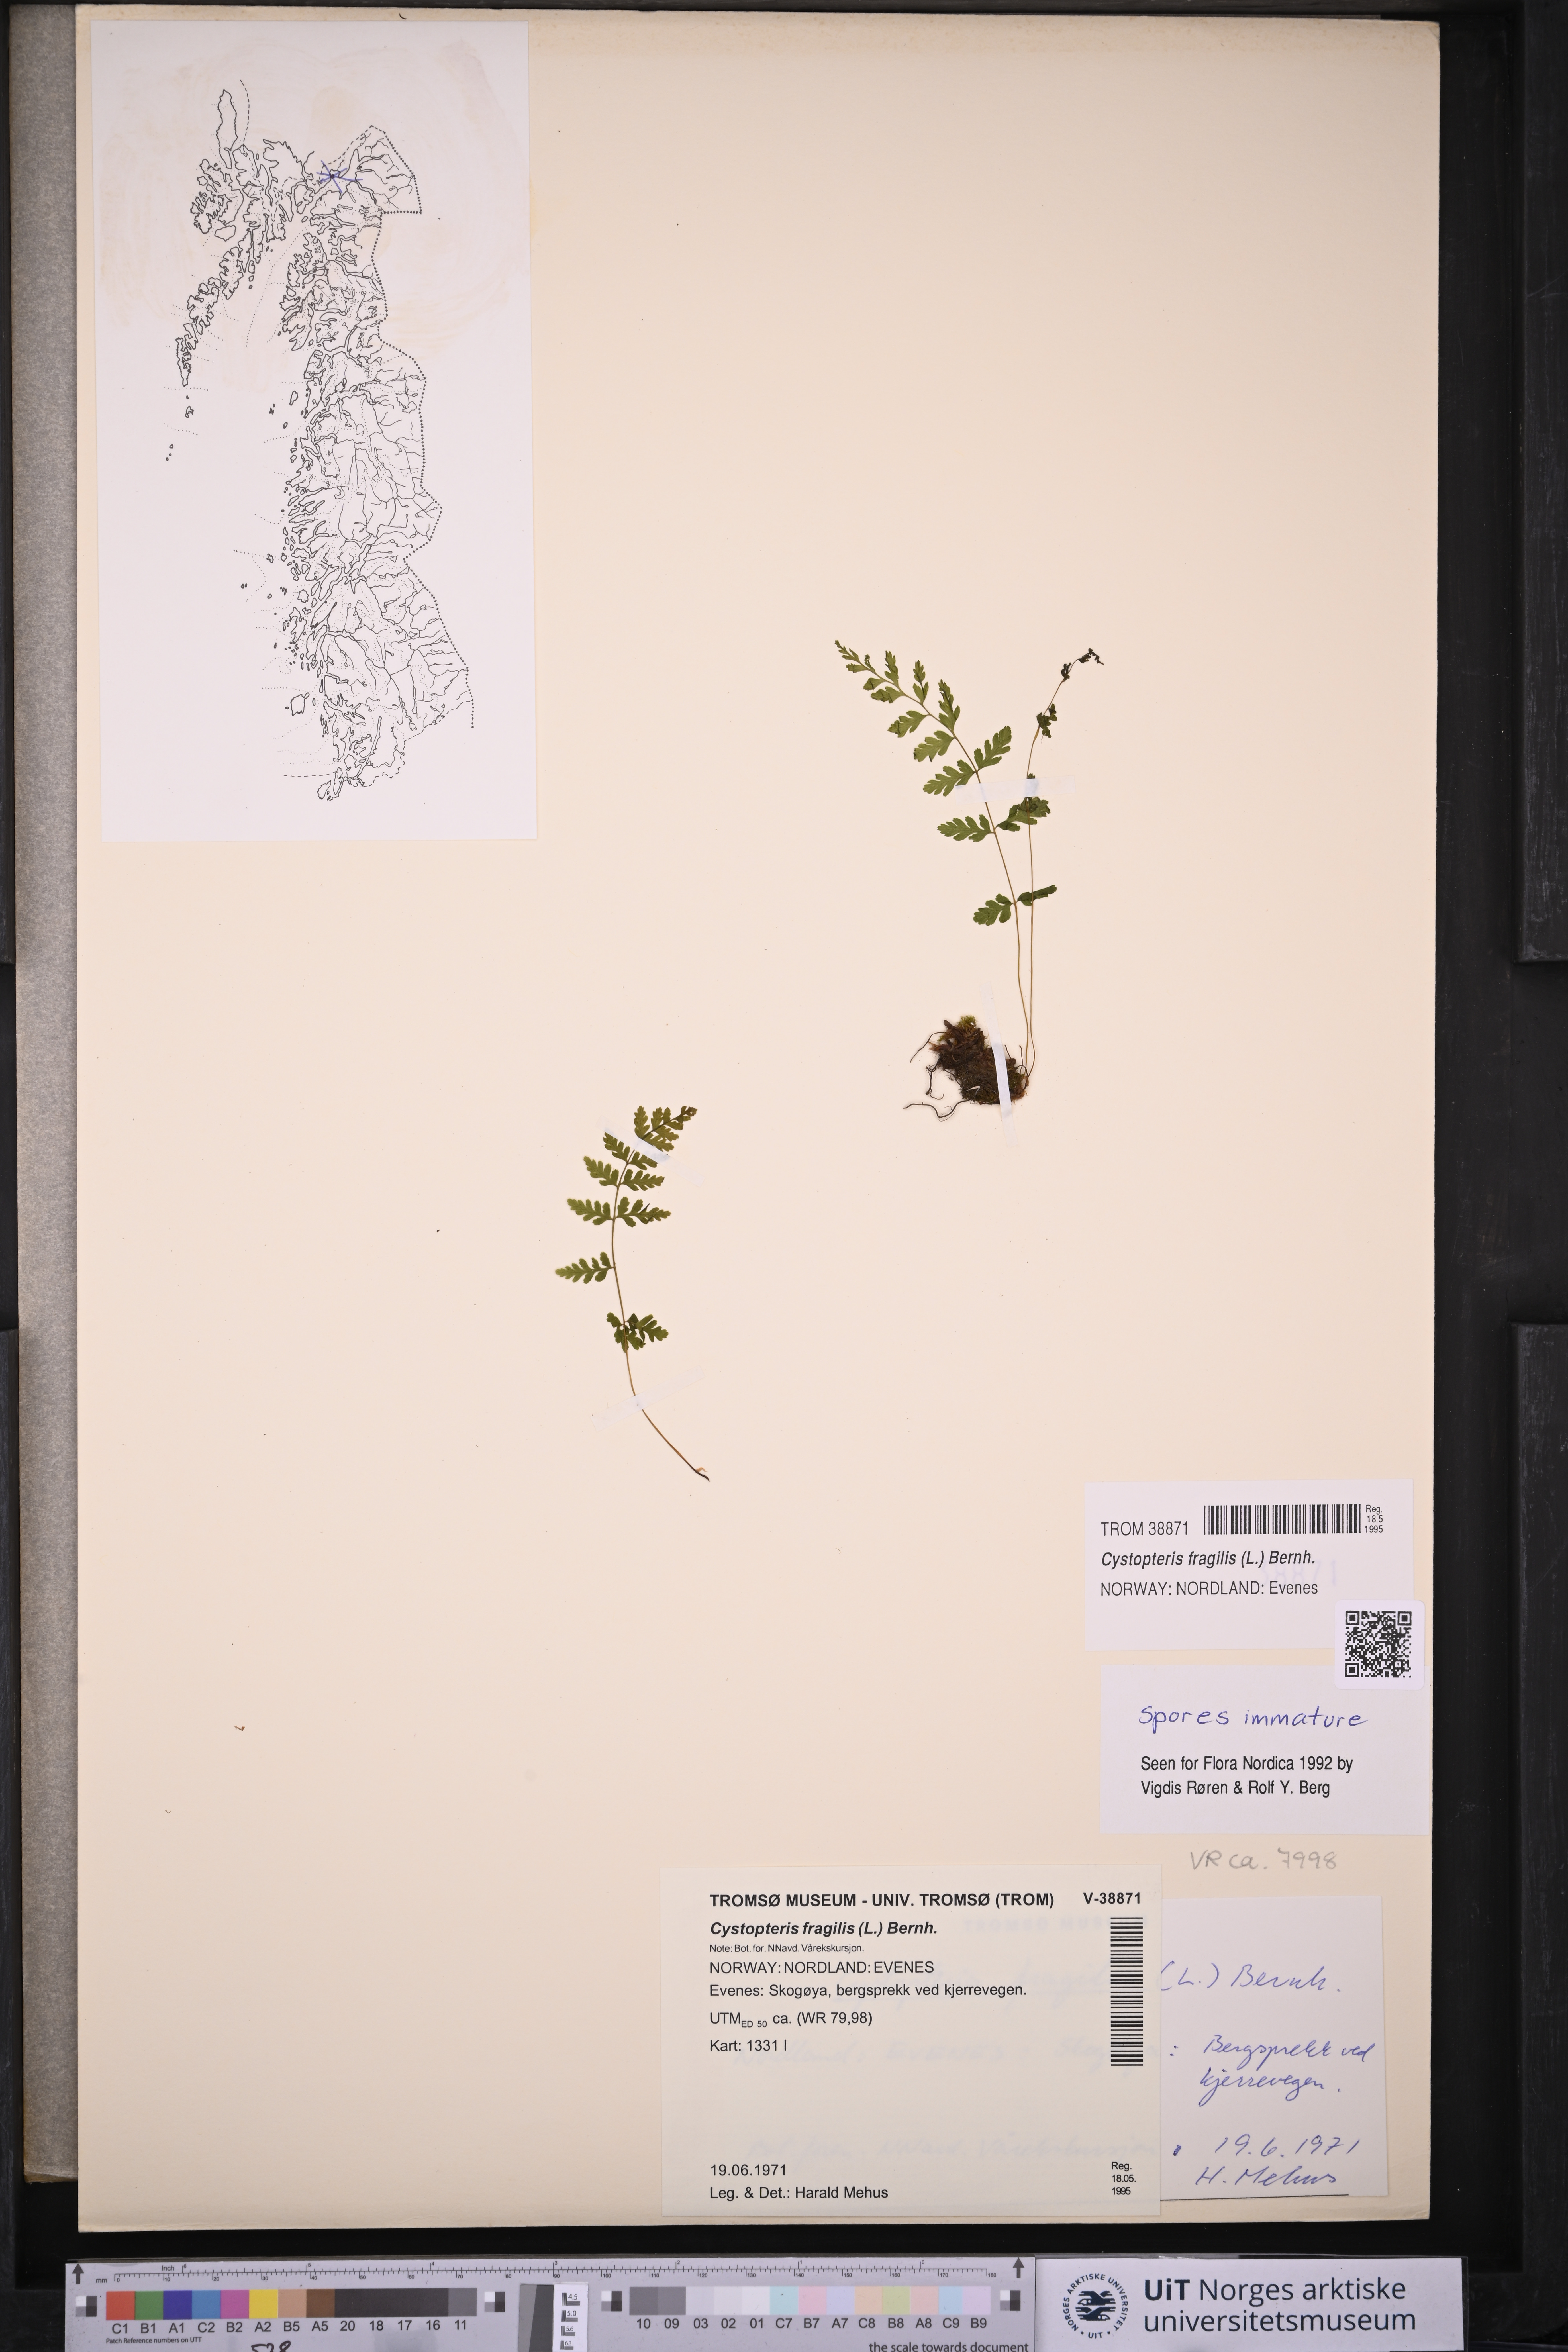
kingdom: Plantae
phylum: Tracheophyta
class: Polypodiopsida
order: Polypodiales
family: Cystopteridaceae
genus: Cystopteris
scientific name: Cystopteris fragilis
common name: Brittle bladder fern
